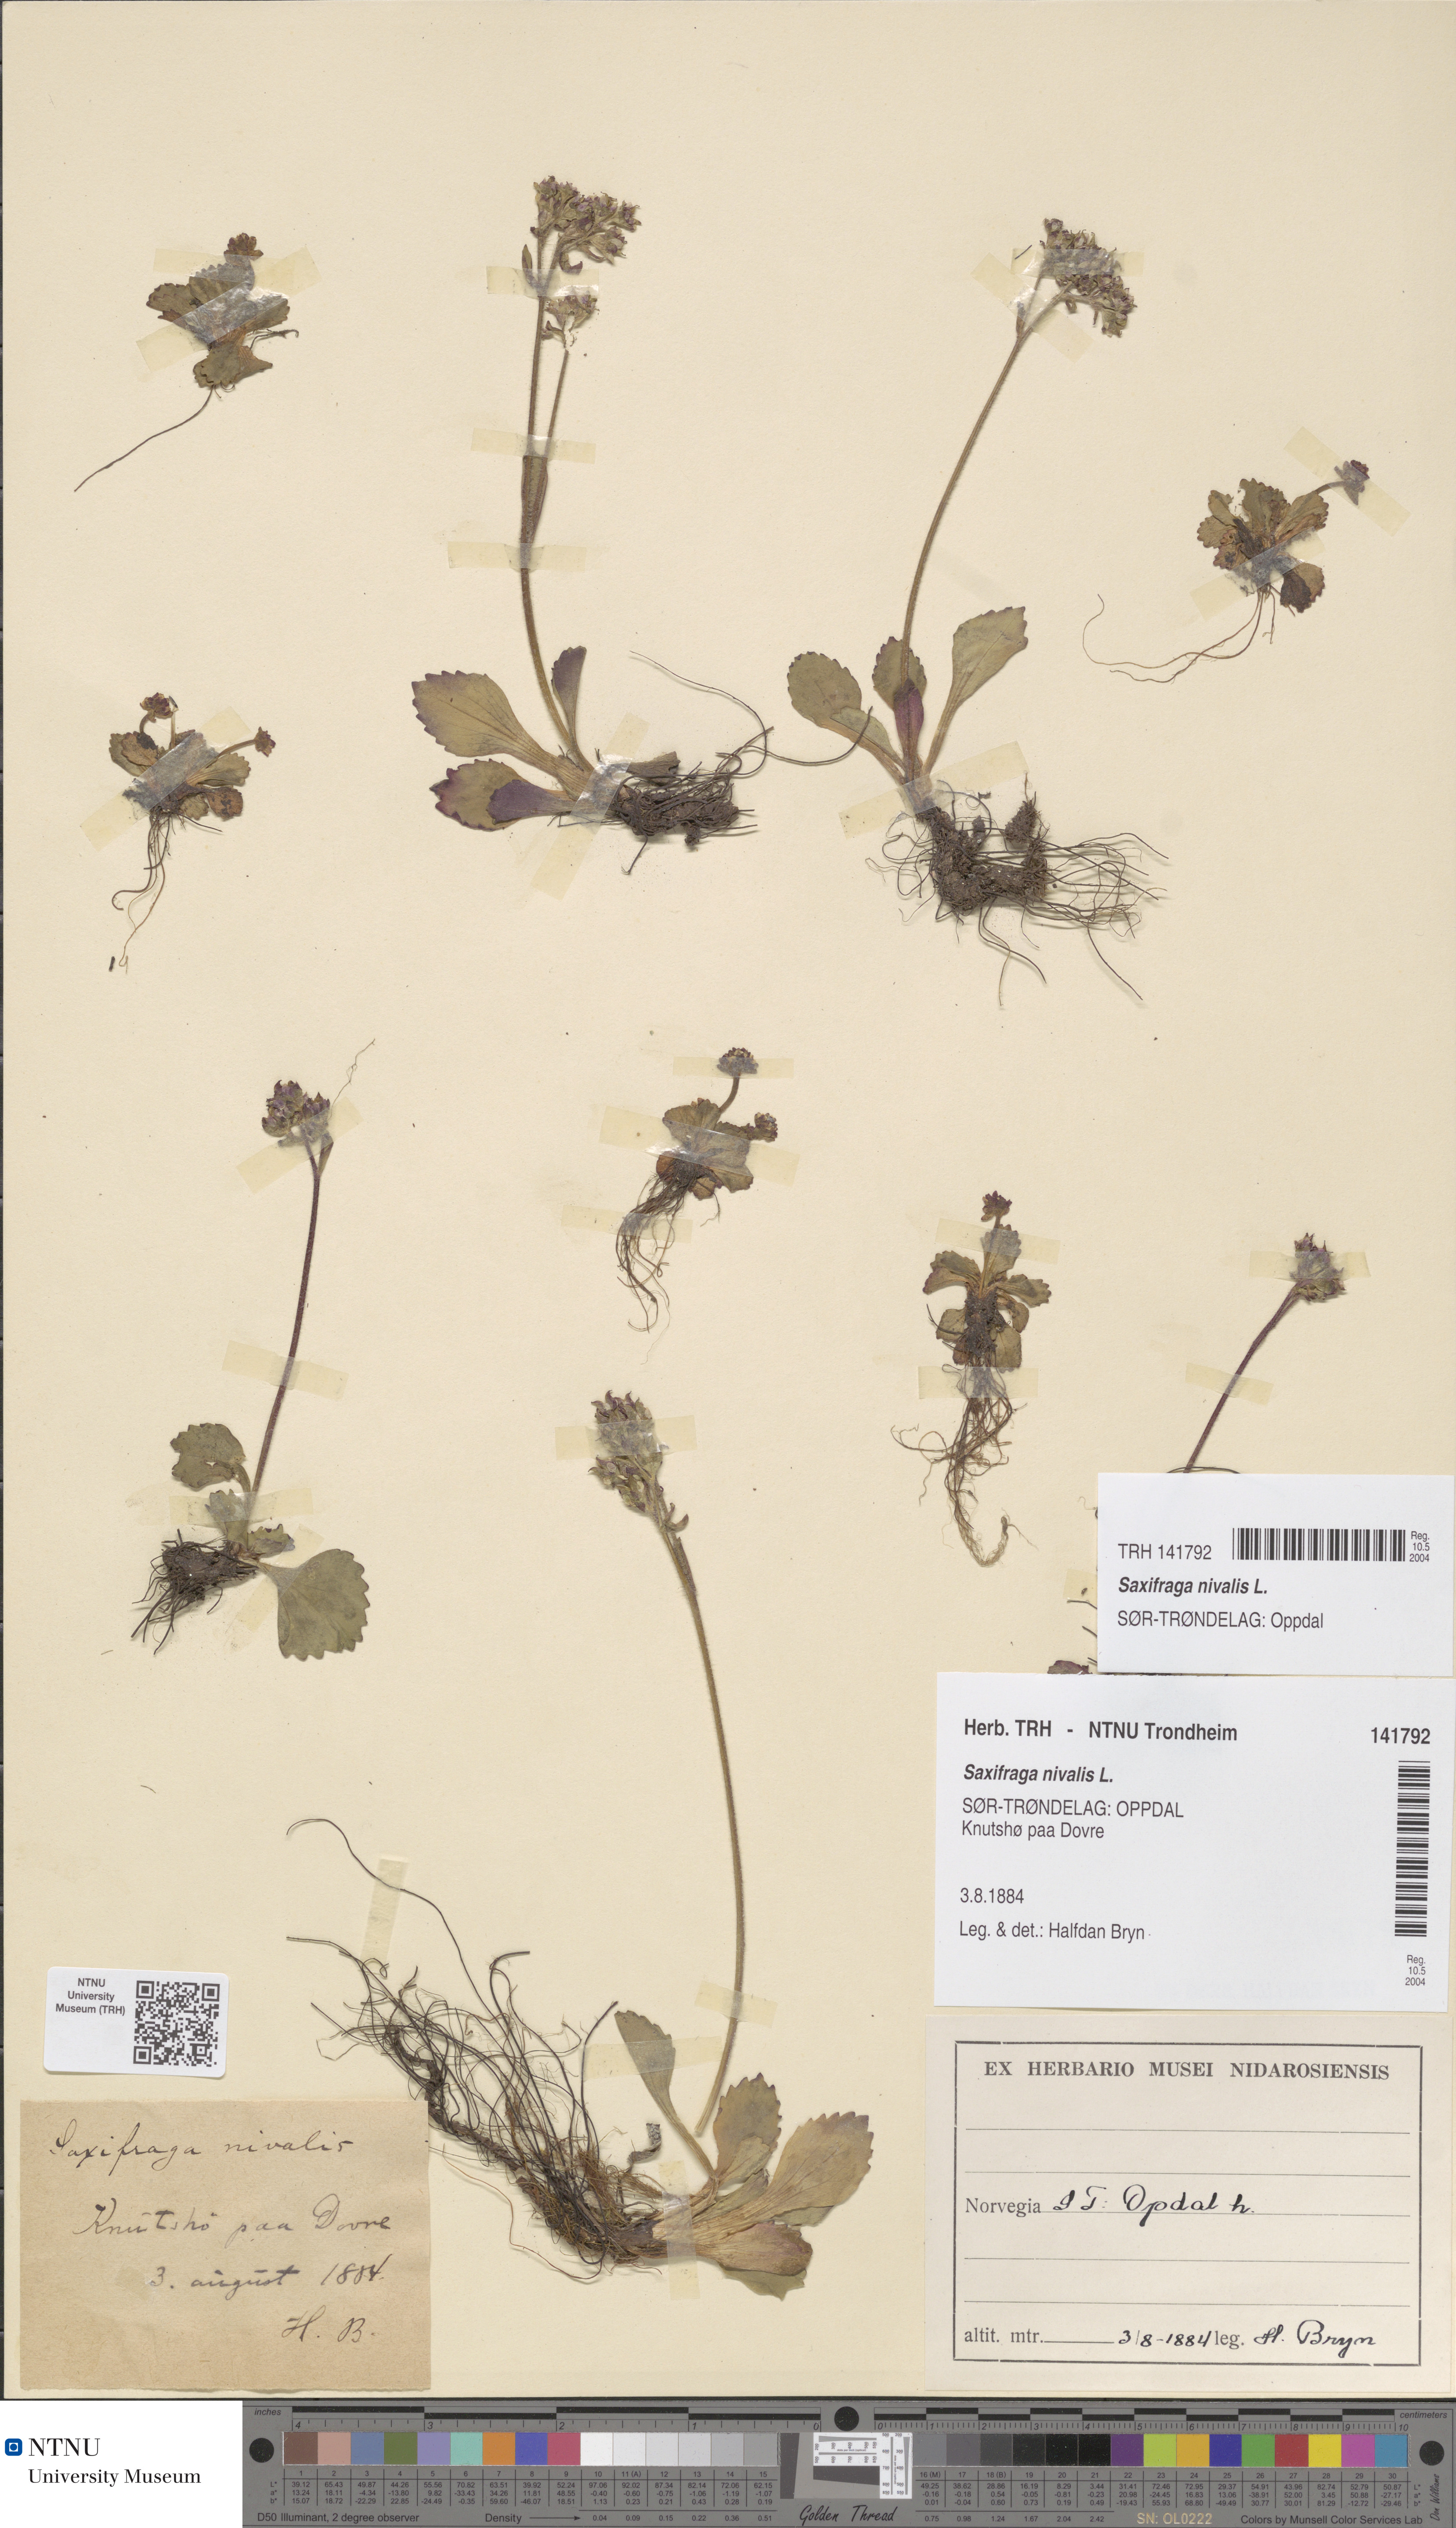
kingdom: Plantae
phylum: Tracheophyta
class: Magnoliopsida
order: Saxifragales
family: Saxifragaceae
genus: Micranthes
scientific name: Micranthes nivalis
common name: Alpine saxifrage
